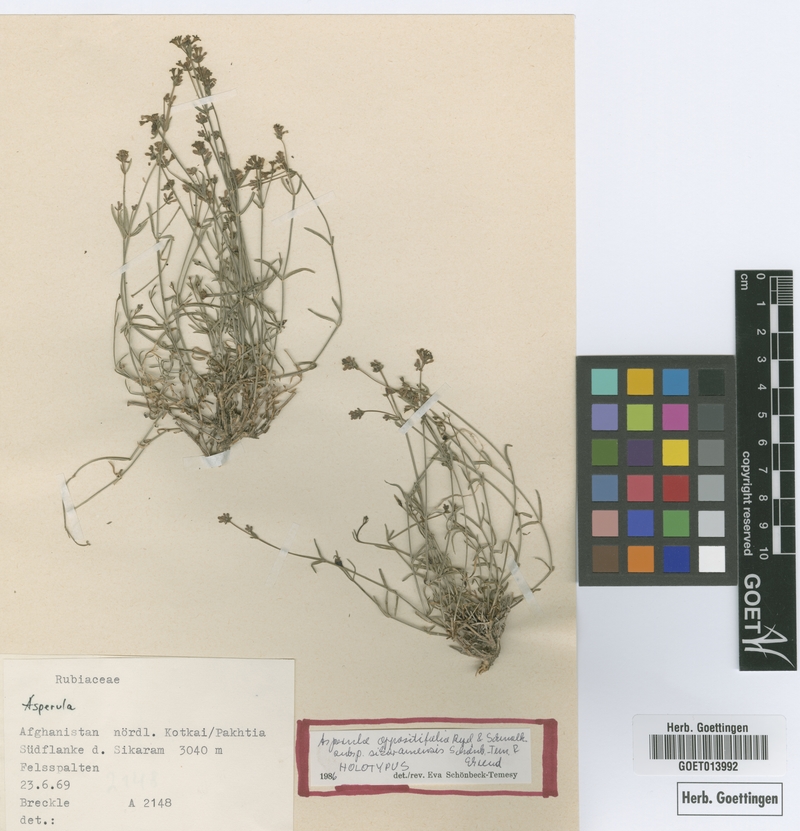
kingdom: Plantae
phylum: Tracheophyta
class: Magnoliopsida
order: Gentianales
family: Rubiaceae
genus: Asperula
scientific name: Asperula oppositifolia
